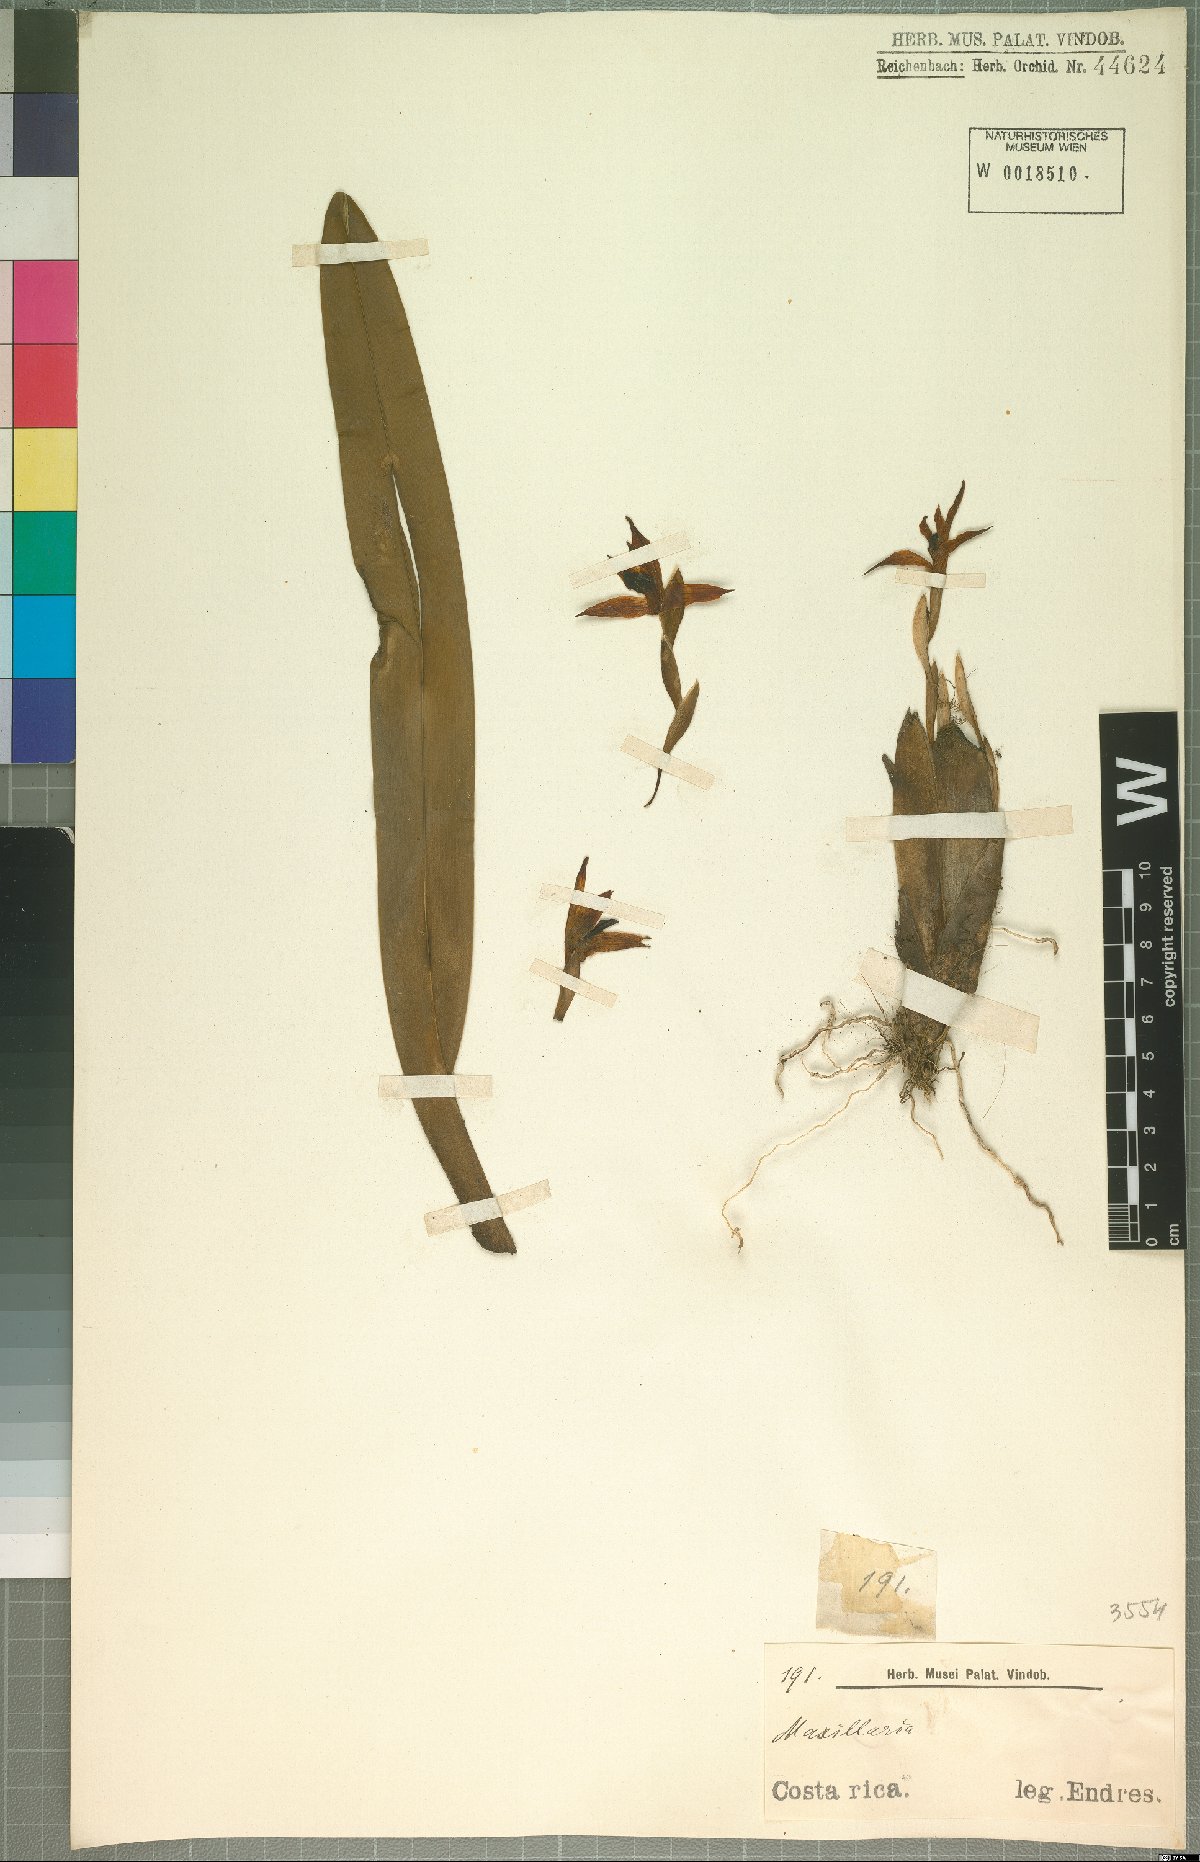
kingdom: Plantae
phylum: Tracheophyta
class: Liliopsida
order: Asparagales
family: Orchidaceae
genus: Maxillaria
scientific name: Maxillaria
